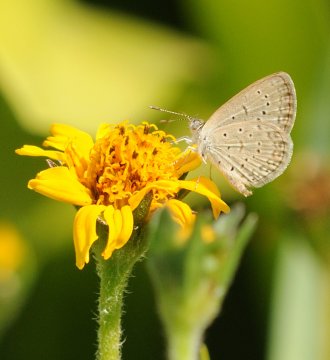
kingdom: Animalia
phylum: Arthropoda
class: Insecta
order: Lepidoptera
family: Lycaenidae
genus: Zizeeria
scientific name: Zizeeria knysna
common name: Dark Grass Blue
